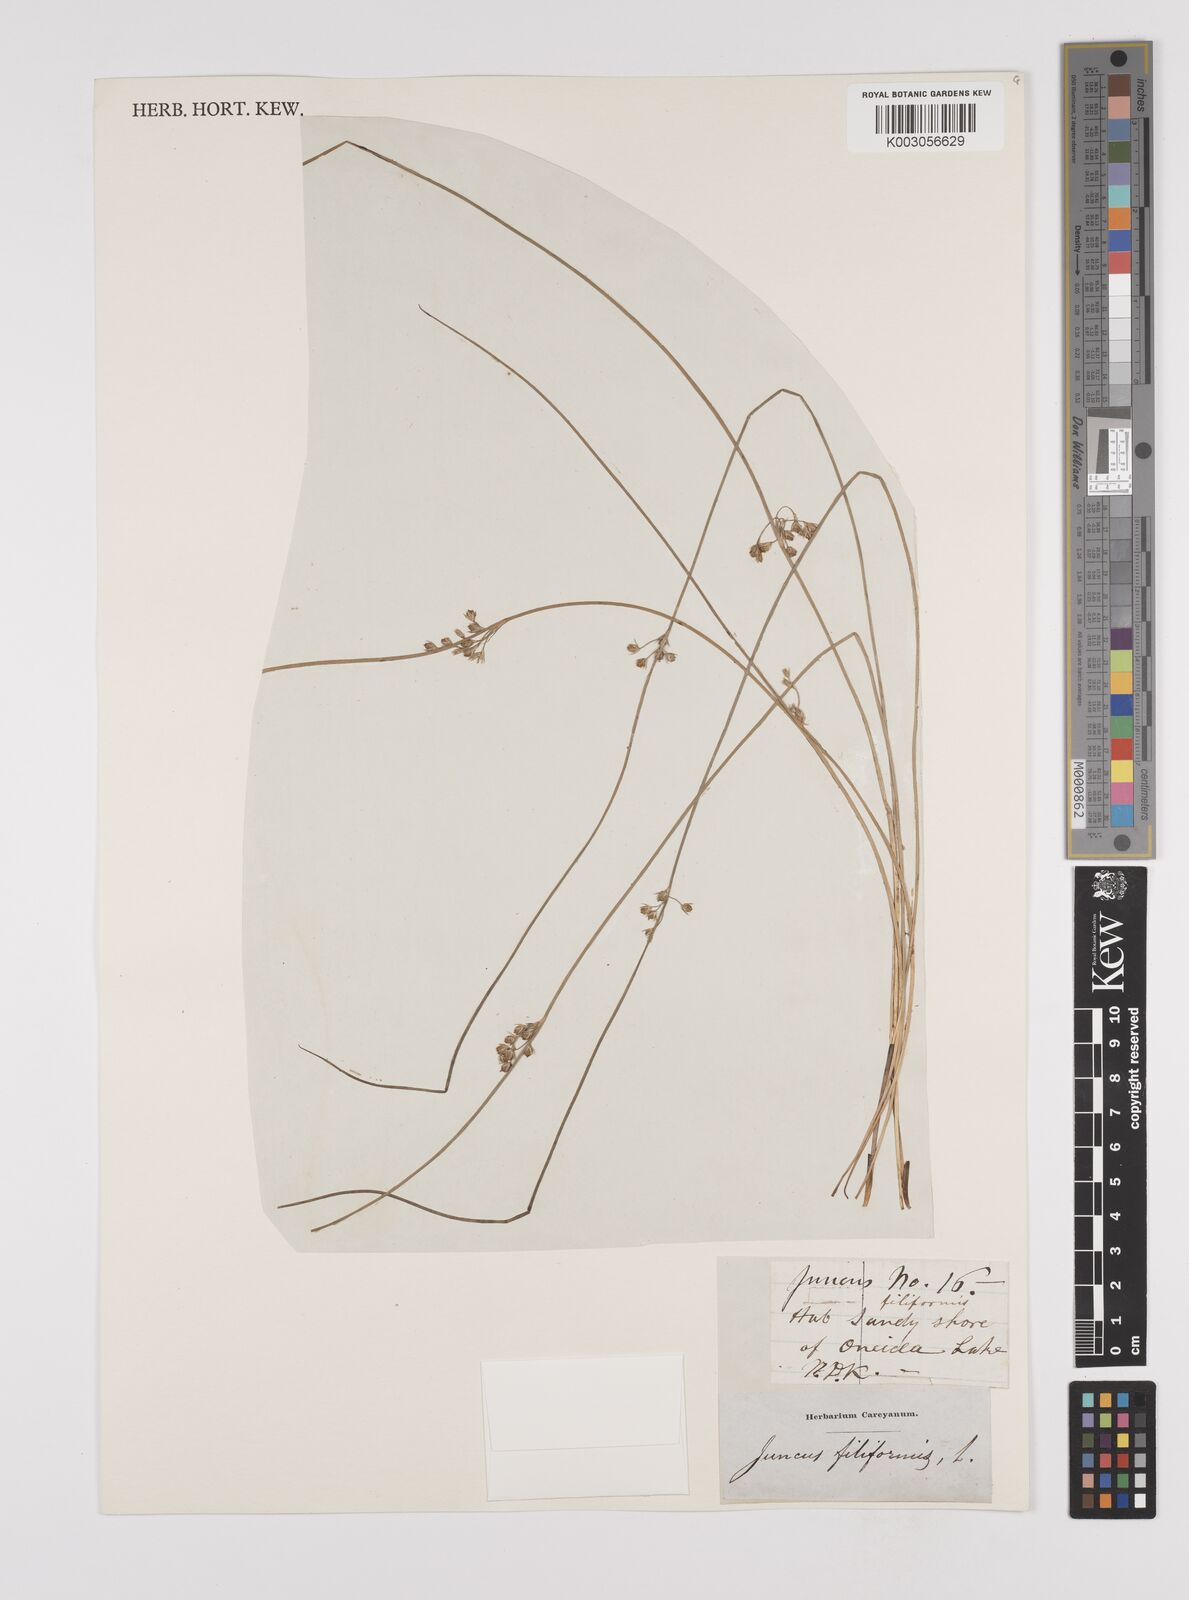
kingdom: Plantae
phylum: Tracheophyta
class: Liliopsida
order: Poales
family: Juncaceae
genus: Juncus
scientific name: Juncus filiformis
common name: Thread rush
